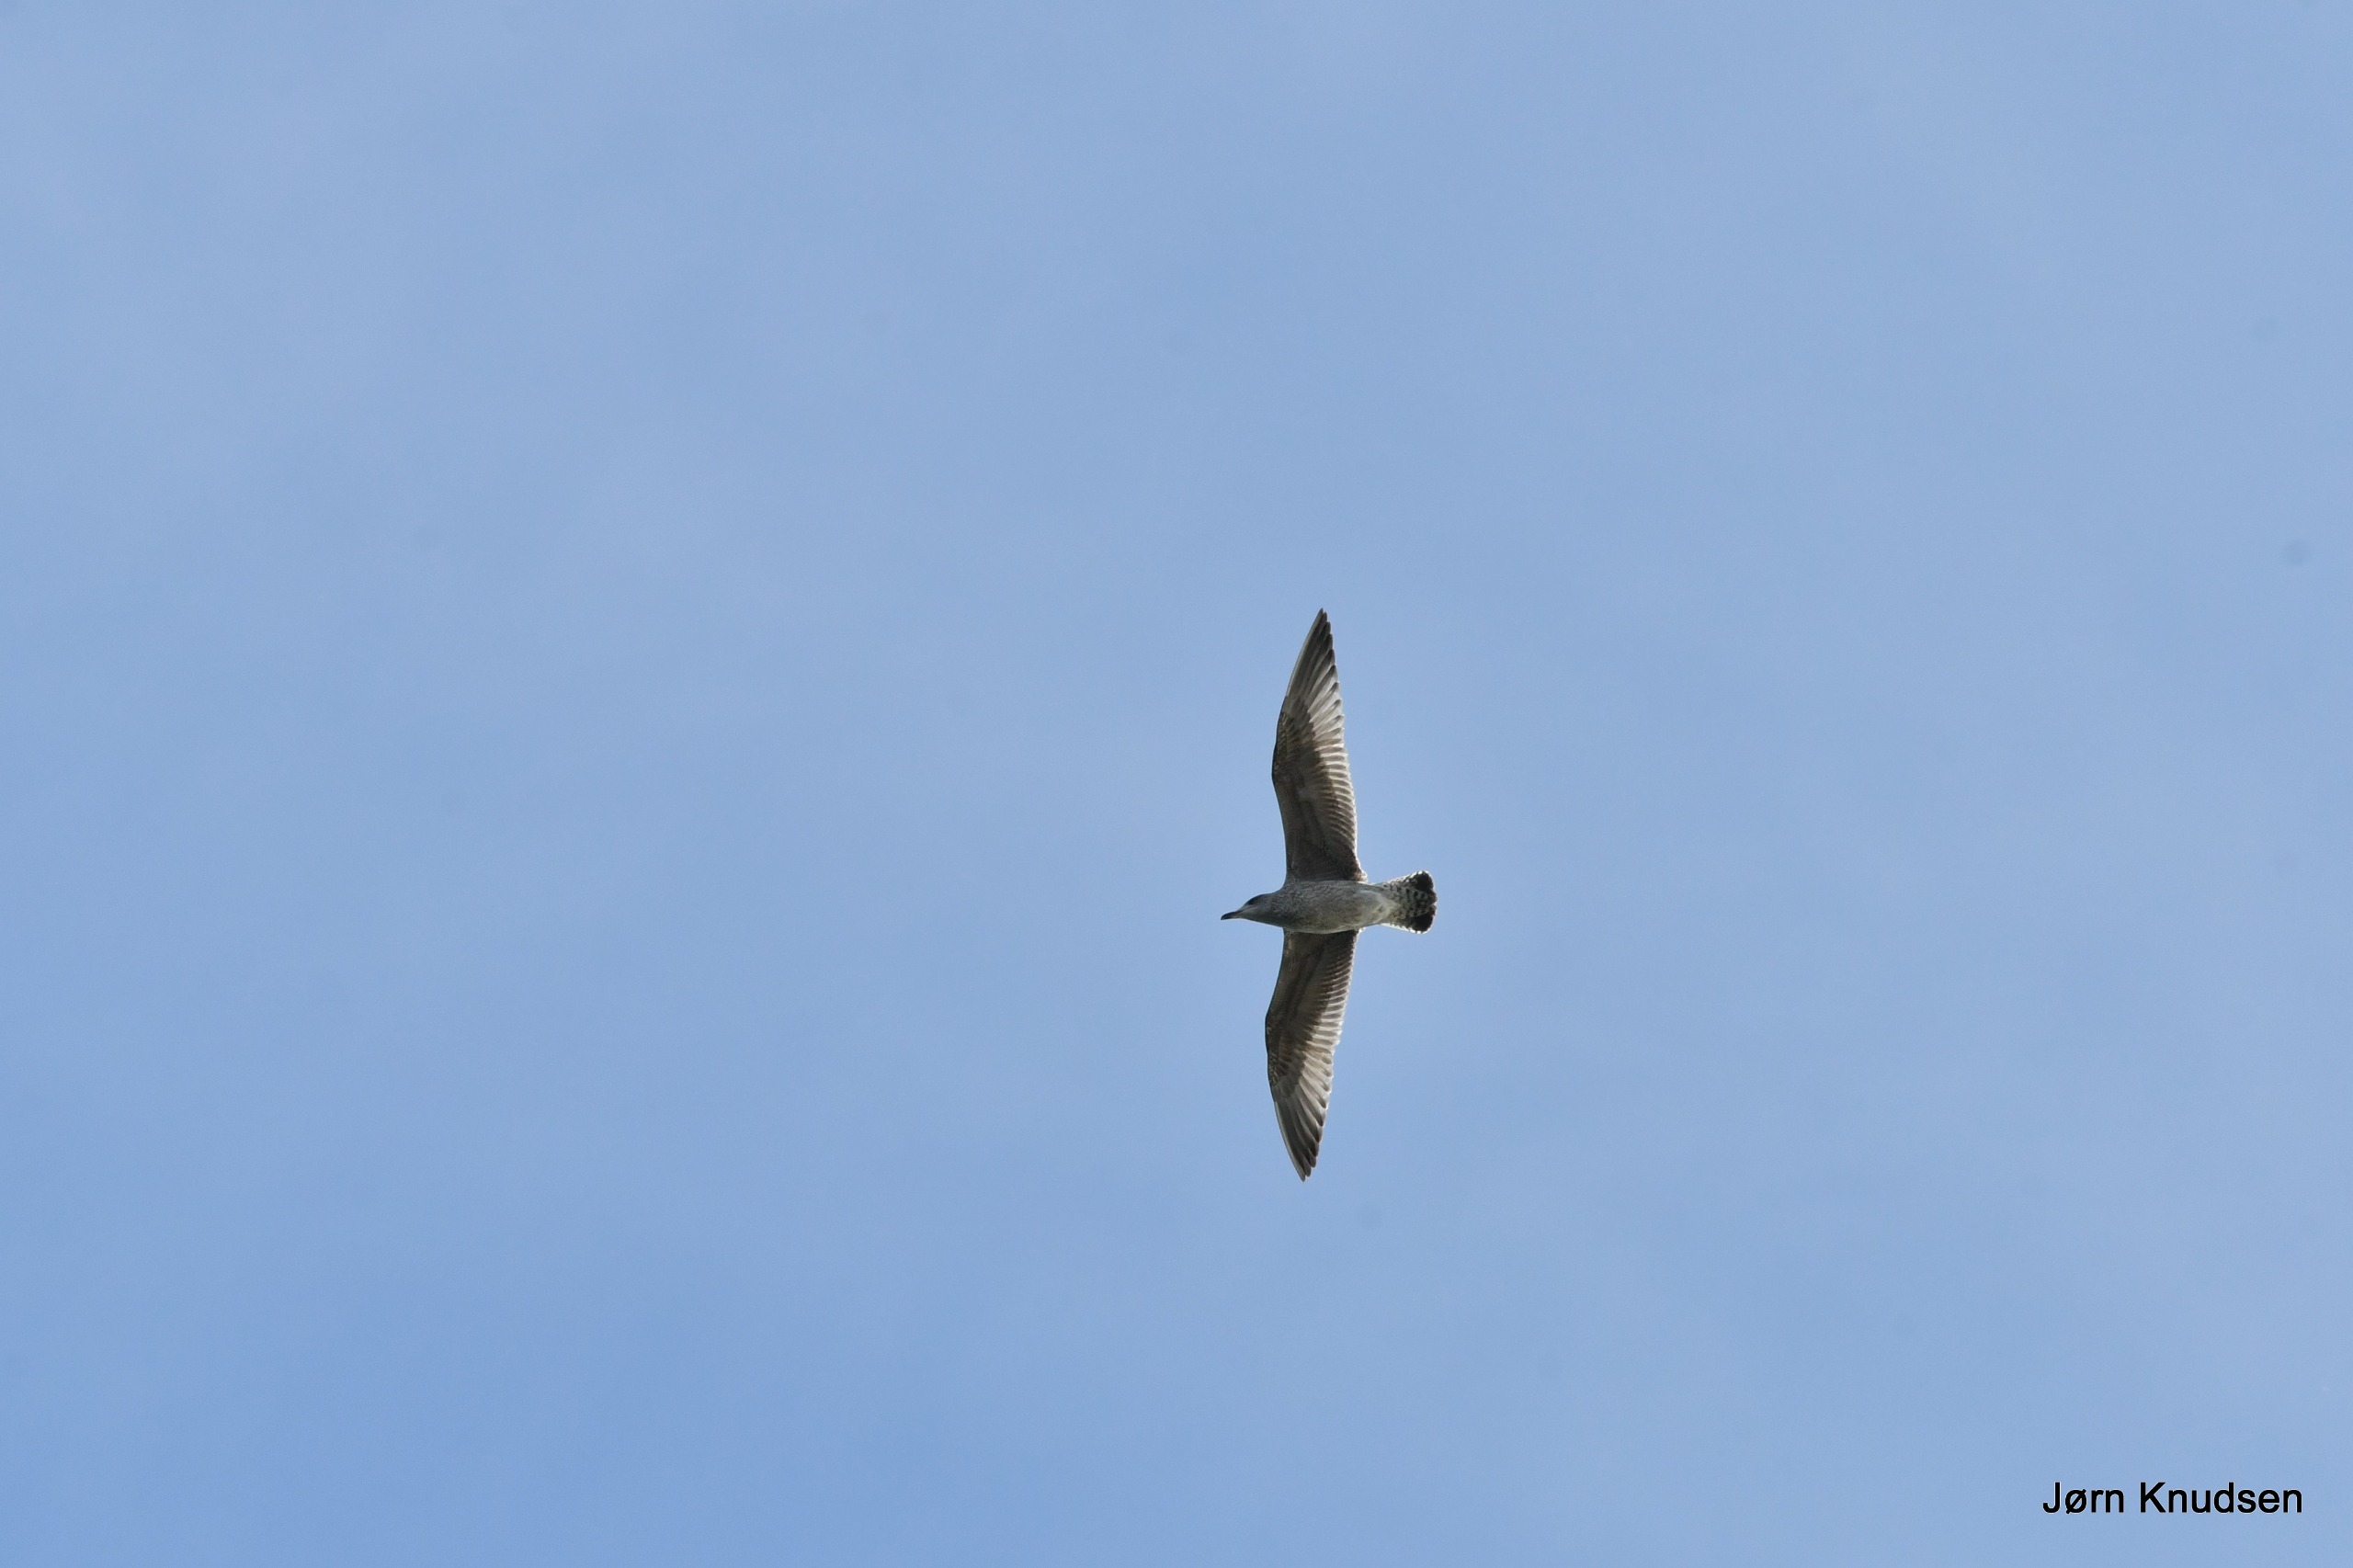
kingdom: Animalia
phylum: Chordata
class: Aves
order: Charadriiformes
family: Laridae
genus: Larus
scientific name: Larus argentatus
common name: Sølvmåge
